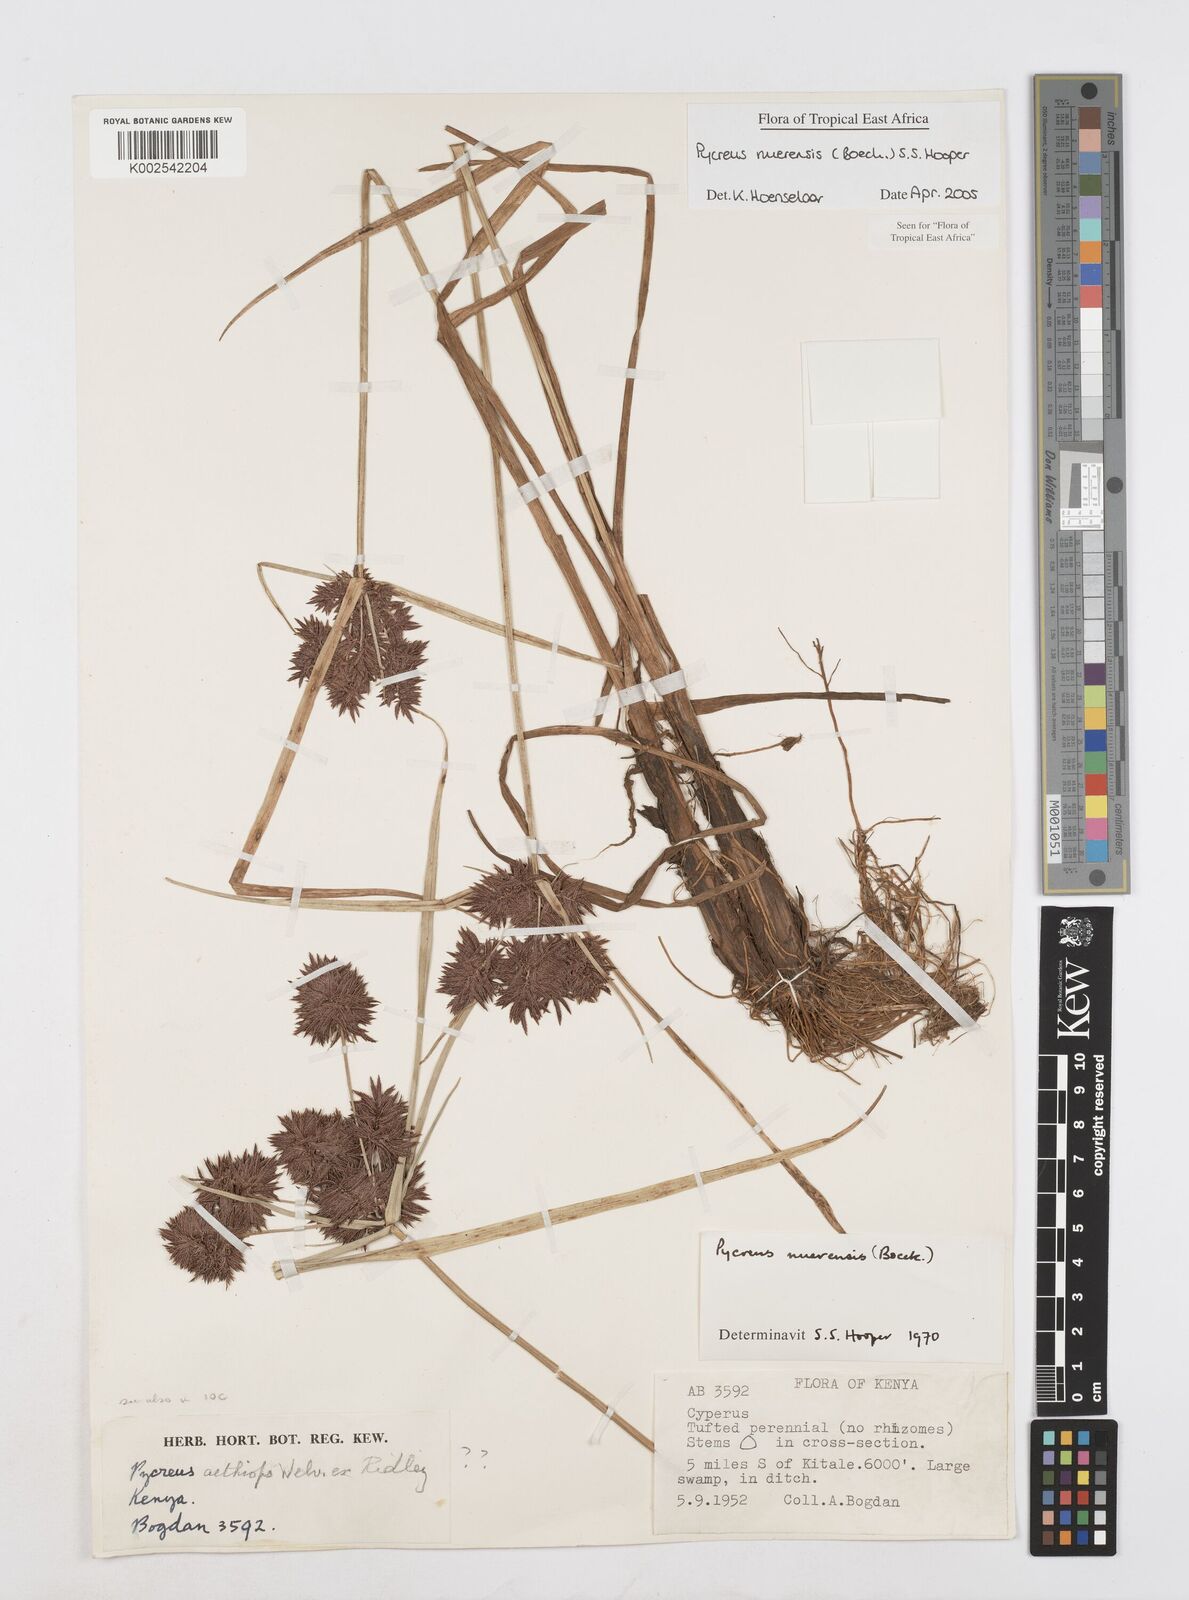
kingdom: Plantae
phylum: Tracheophyta
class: Liliopsida
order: Poales
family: Cyperaceae
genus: Cyperus
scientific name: Cyperus nuerensis
